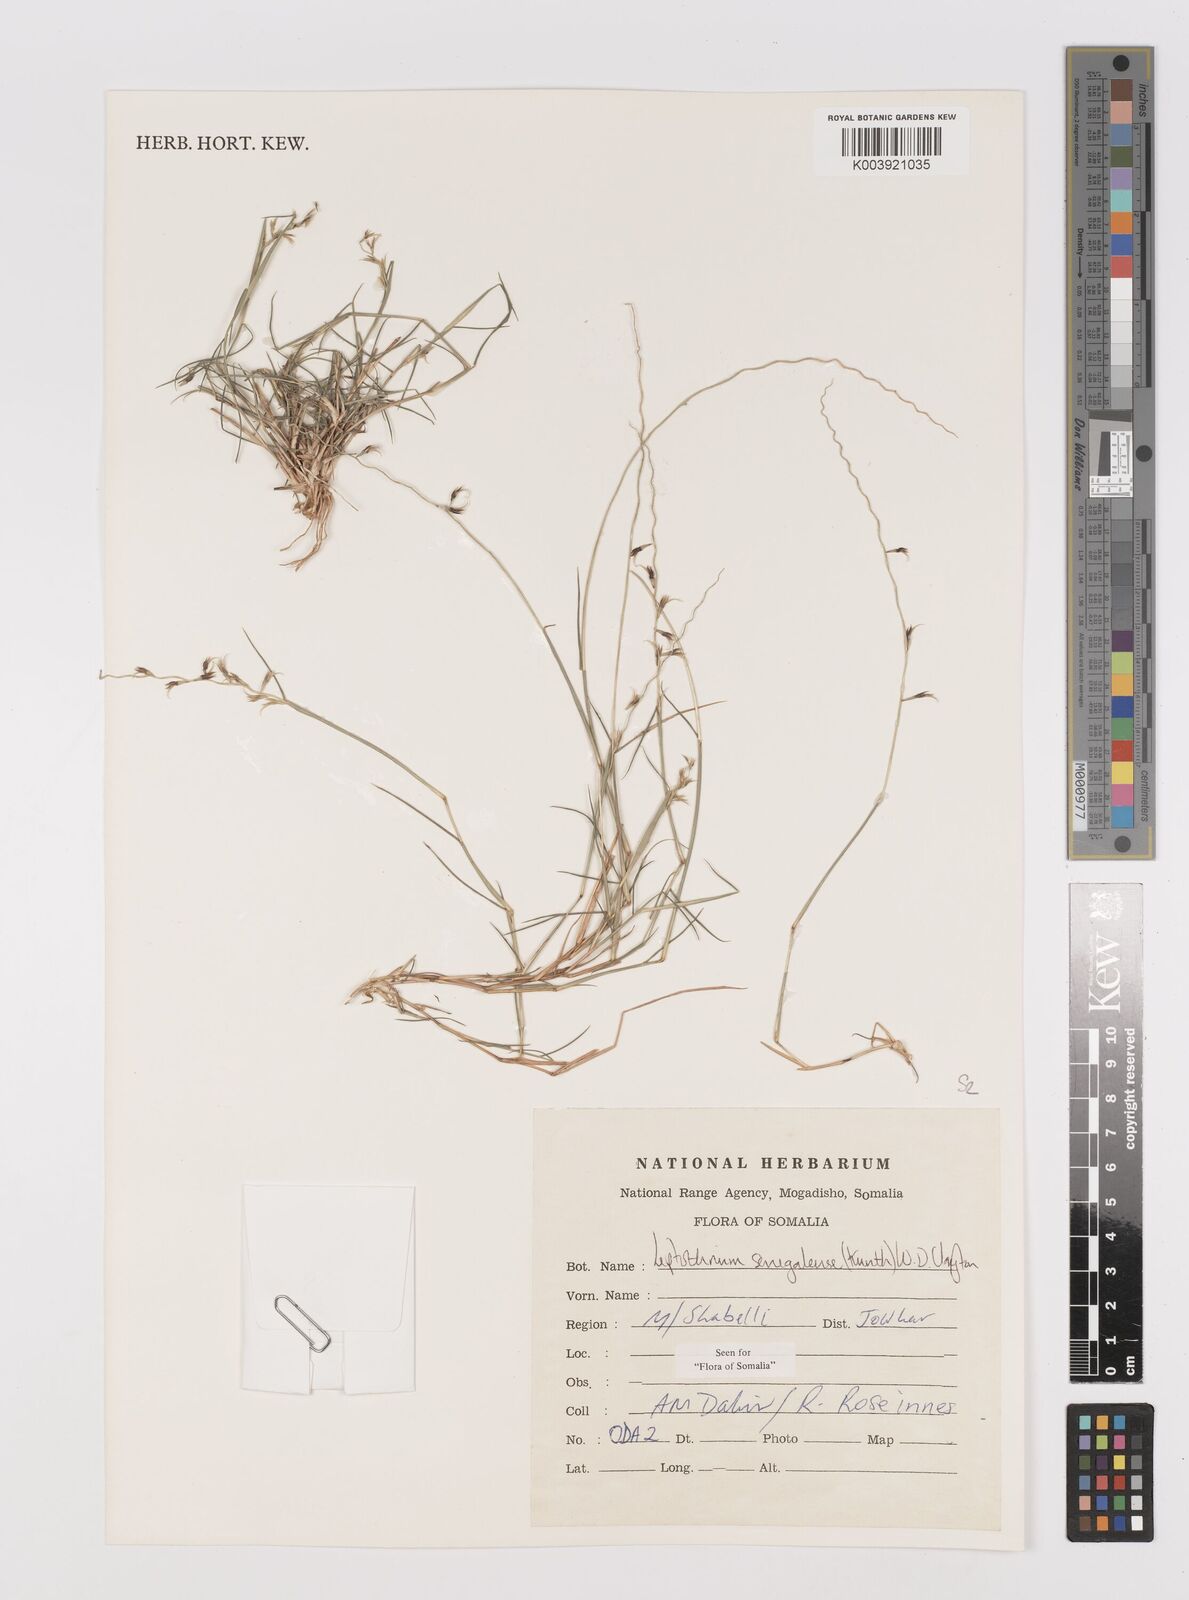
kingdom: Plantae
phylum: Tracheophyta
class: Liliopsida
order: Poales
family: Poaceae
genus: Leptothrium
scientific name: Leptothrium senegalense
